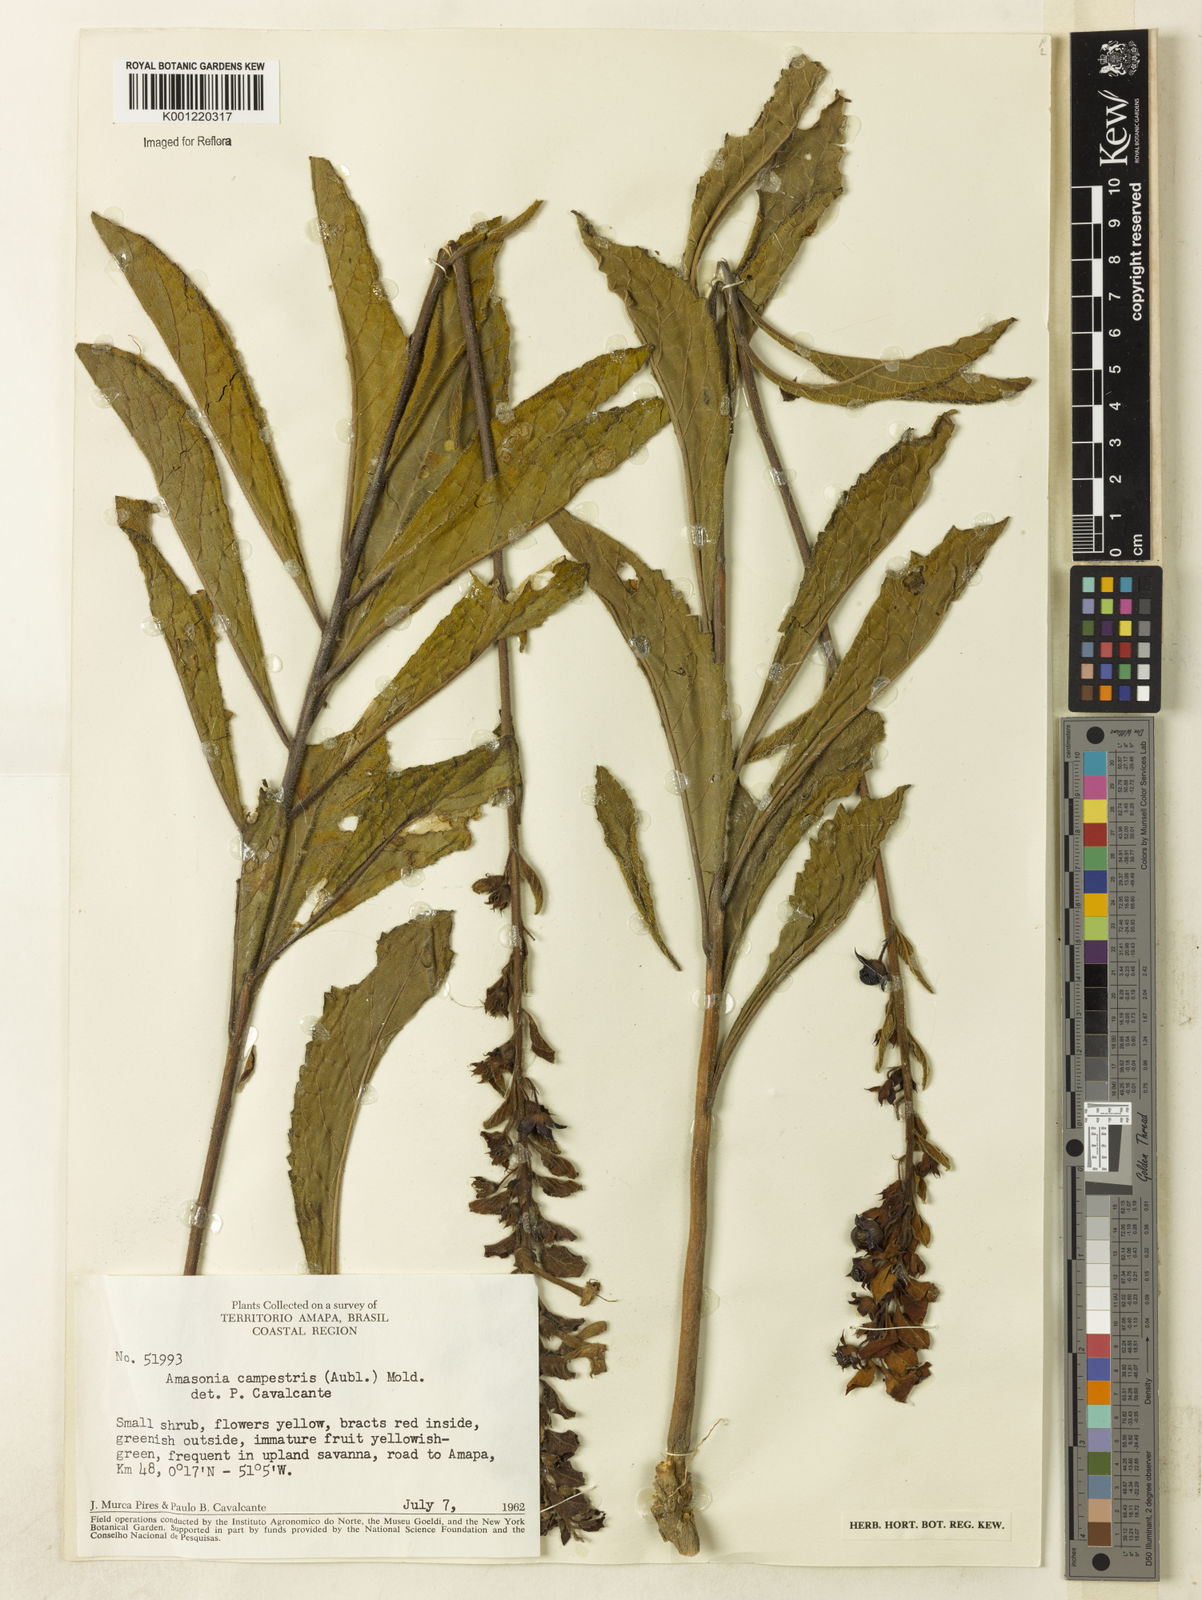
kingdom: Plantae
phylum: Tracheophyta
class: Magnoliopsida
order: Lamiales
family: Lamiaceae
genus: Amasonia
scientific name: Amasonia campestris
